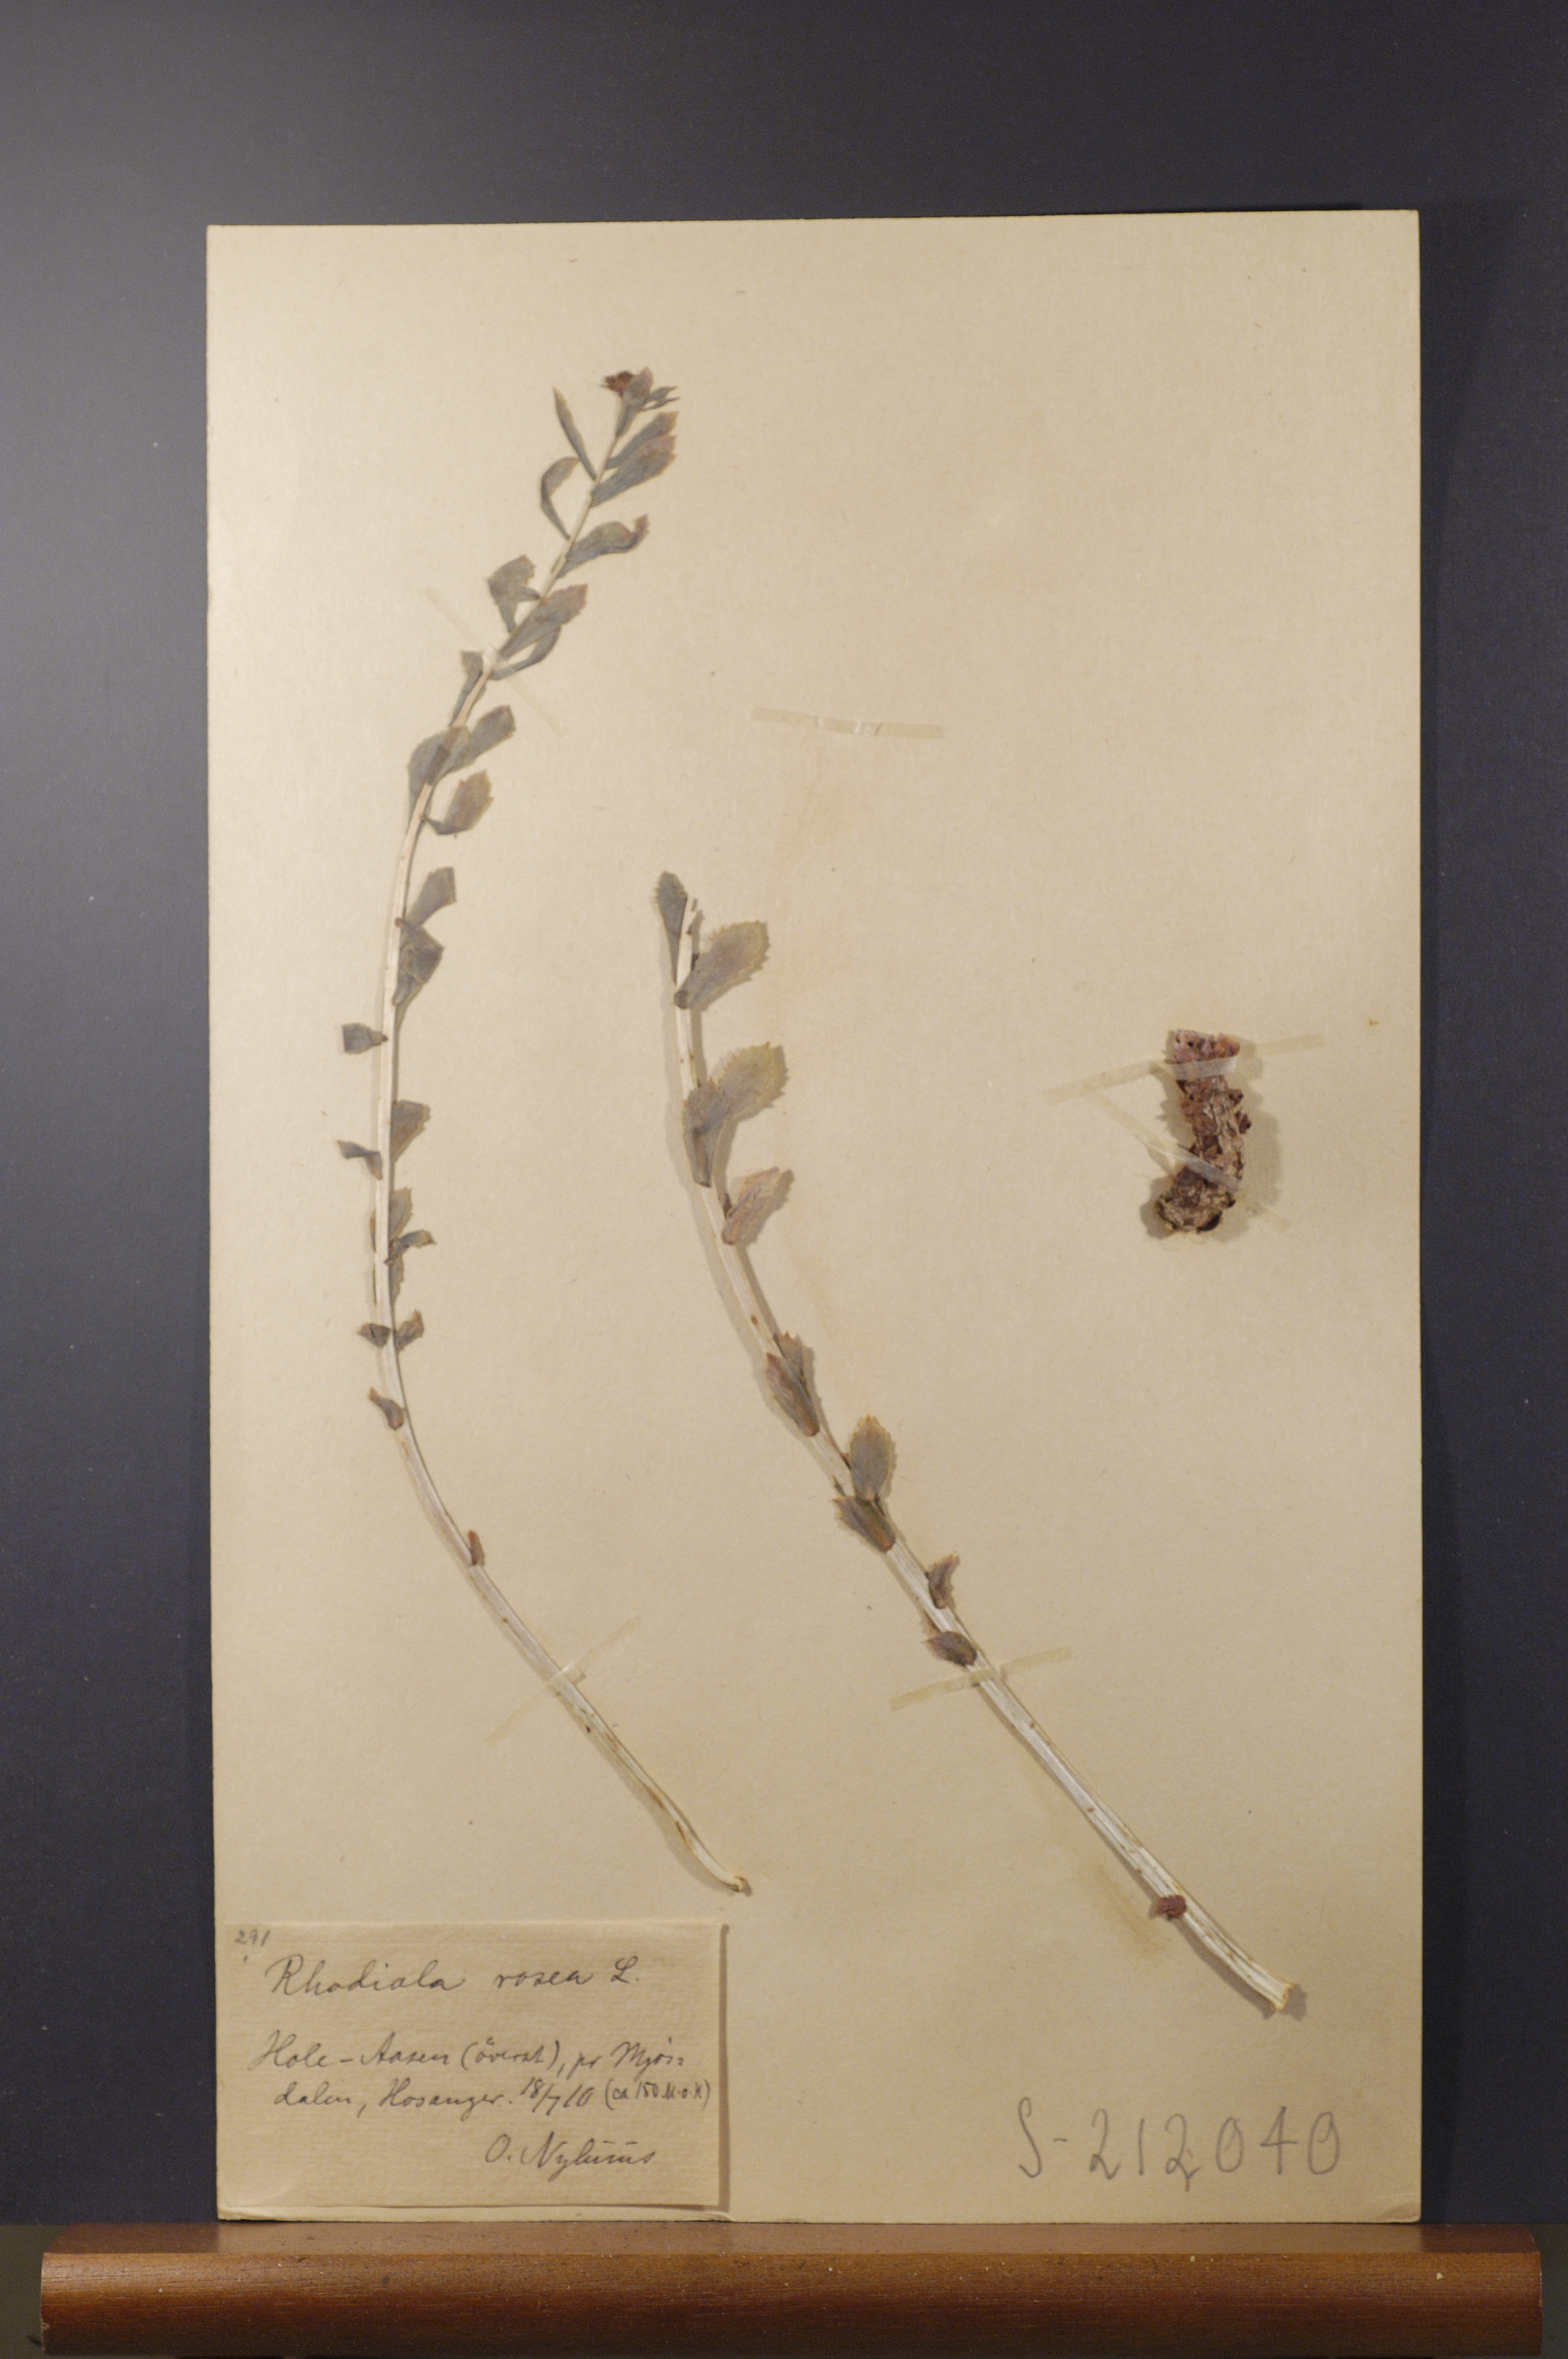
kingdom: Plantae
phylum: Tracheophyta
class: Magnoliopsida
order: Saxifragales
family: Crassulaceae
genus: Rhodiola
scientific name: Rhodiola rosea
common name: Roseroot
